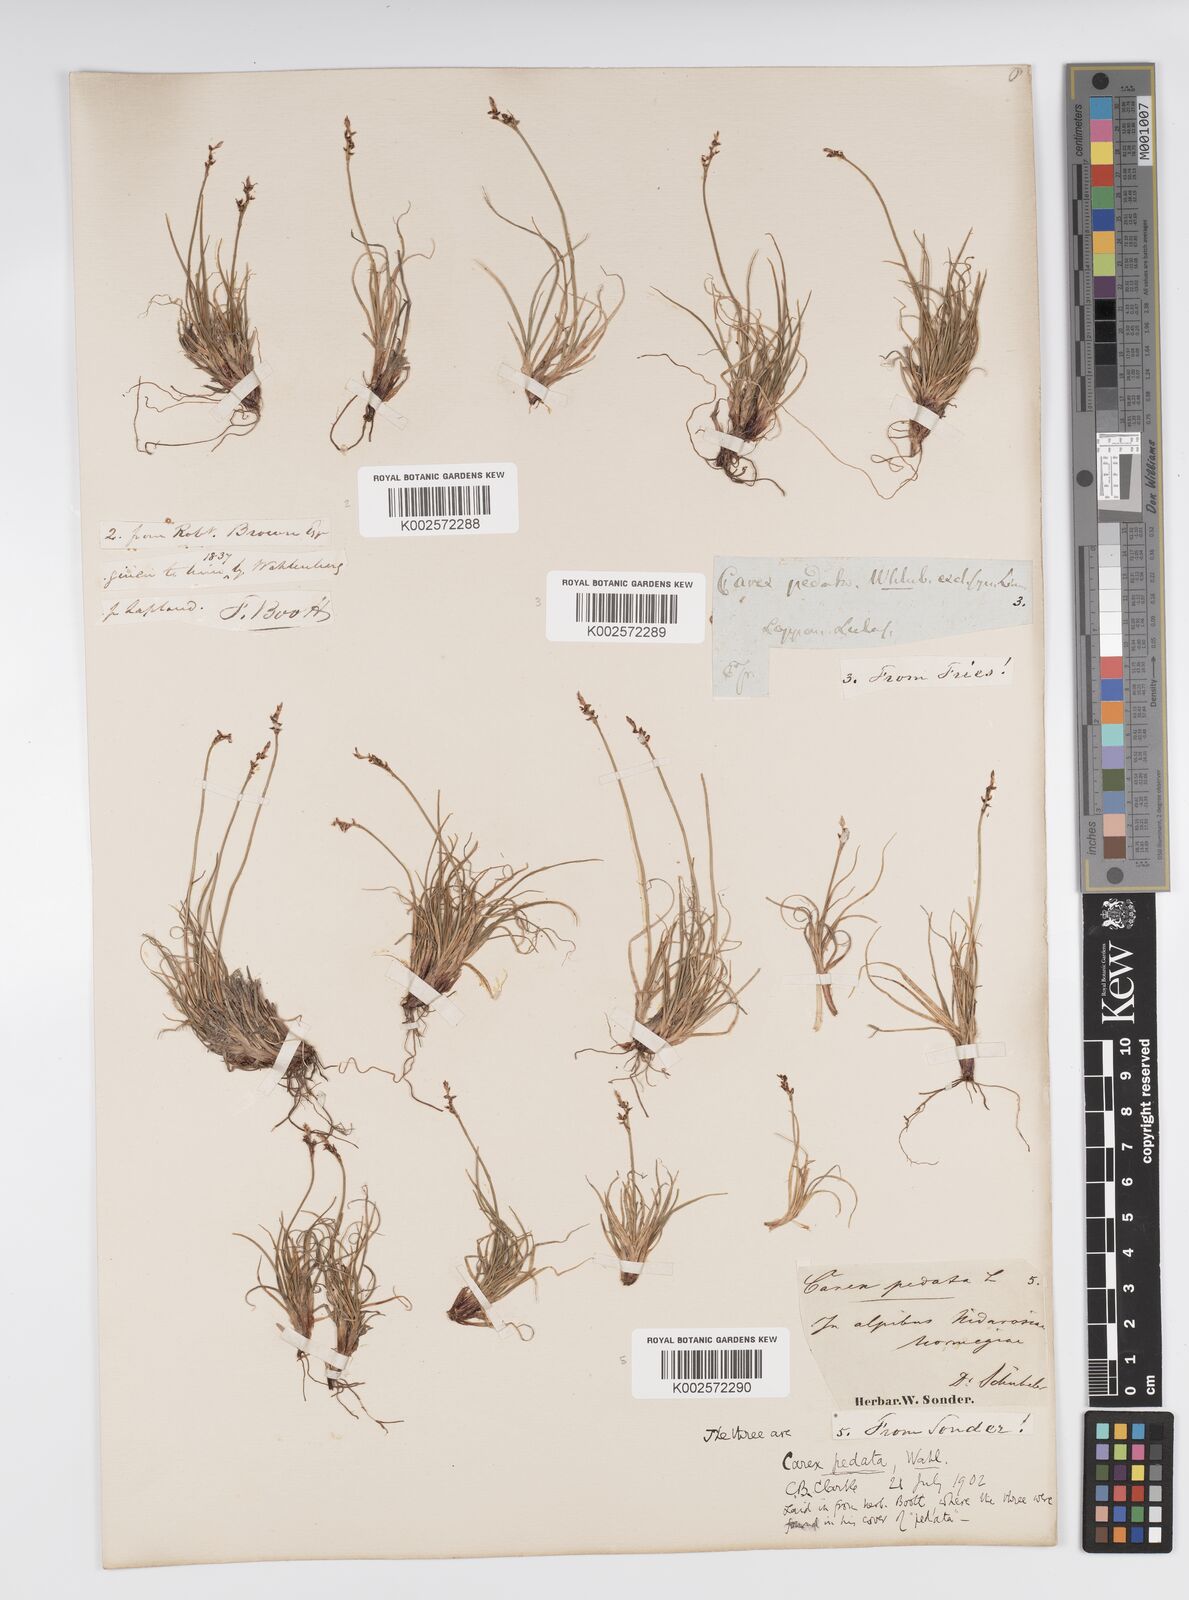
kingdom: Plantae
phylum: Tracheophyta
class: Liliopsida
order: Poales
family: Cyperaceae
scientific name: Cyperaceae
